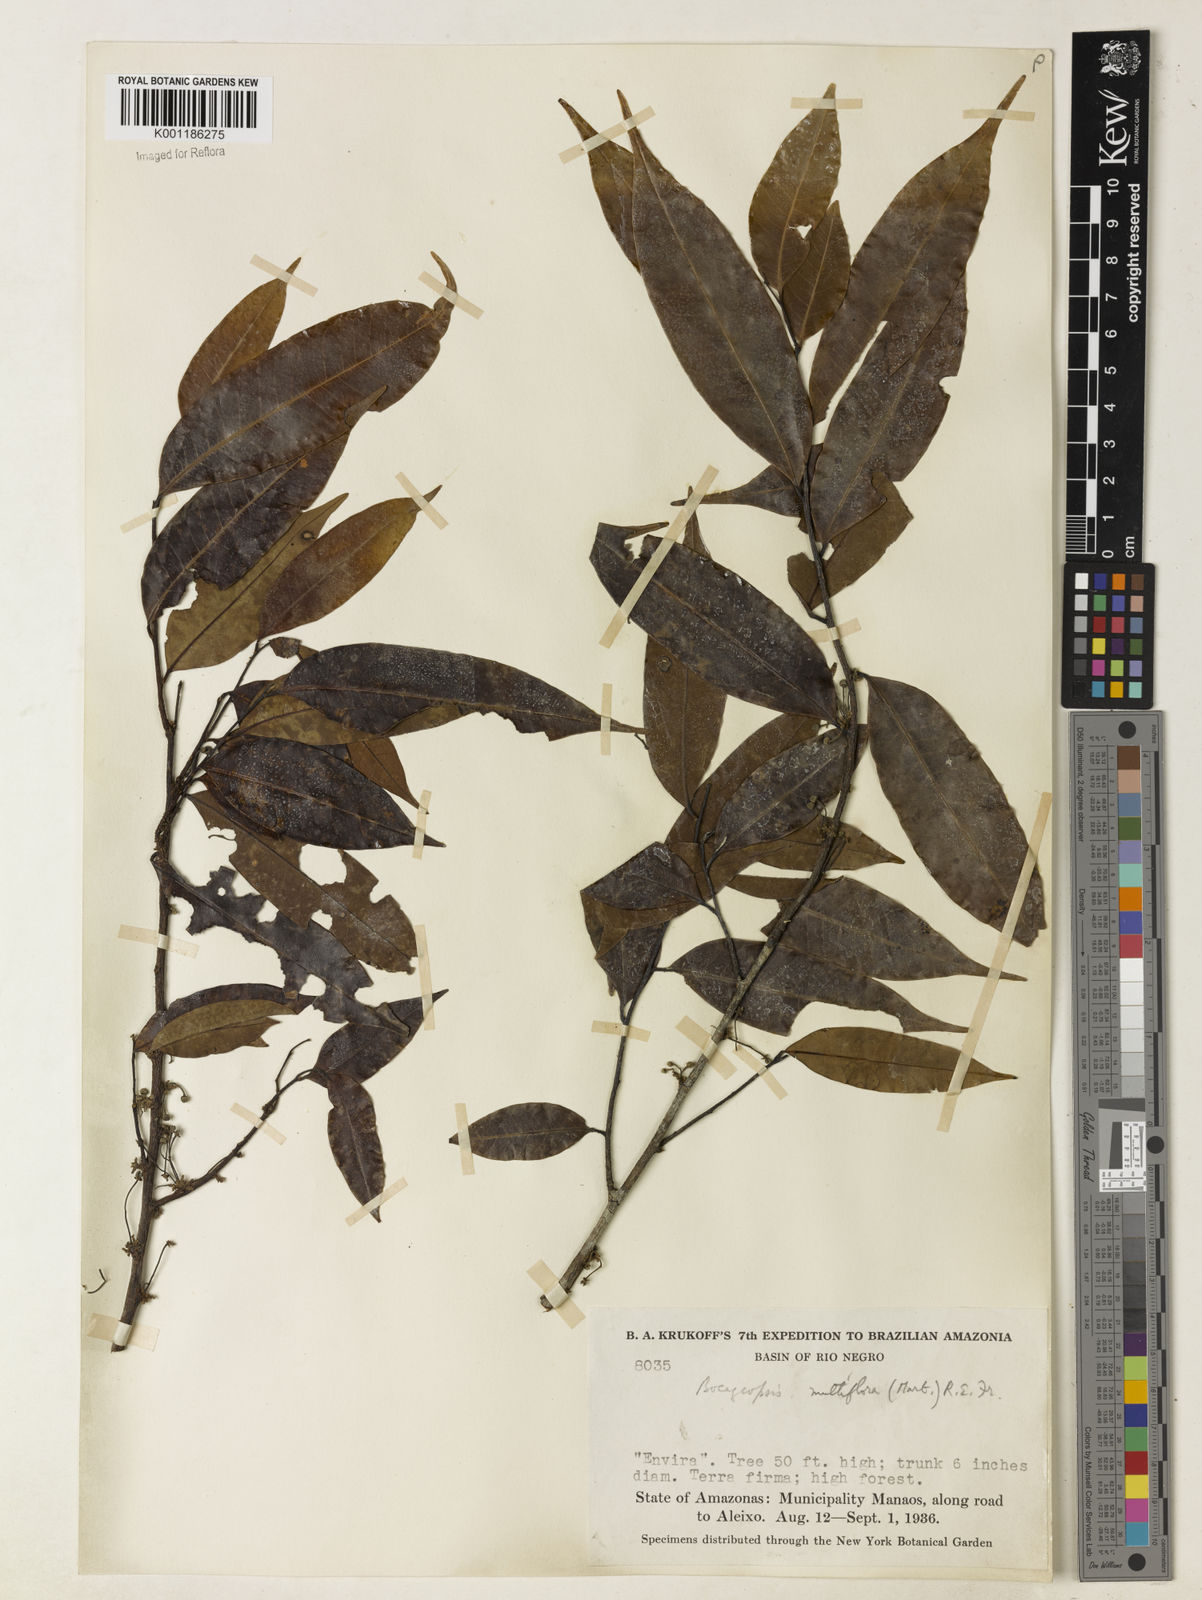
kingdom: Plantae
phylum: Tracheophyta
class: Magnoliopsida
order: Magnoliales
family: Annonaceae
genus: Bocageopsis
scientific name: Bocageopsis multiflora
